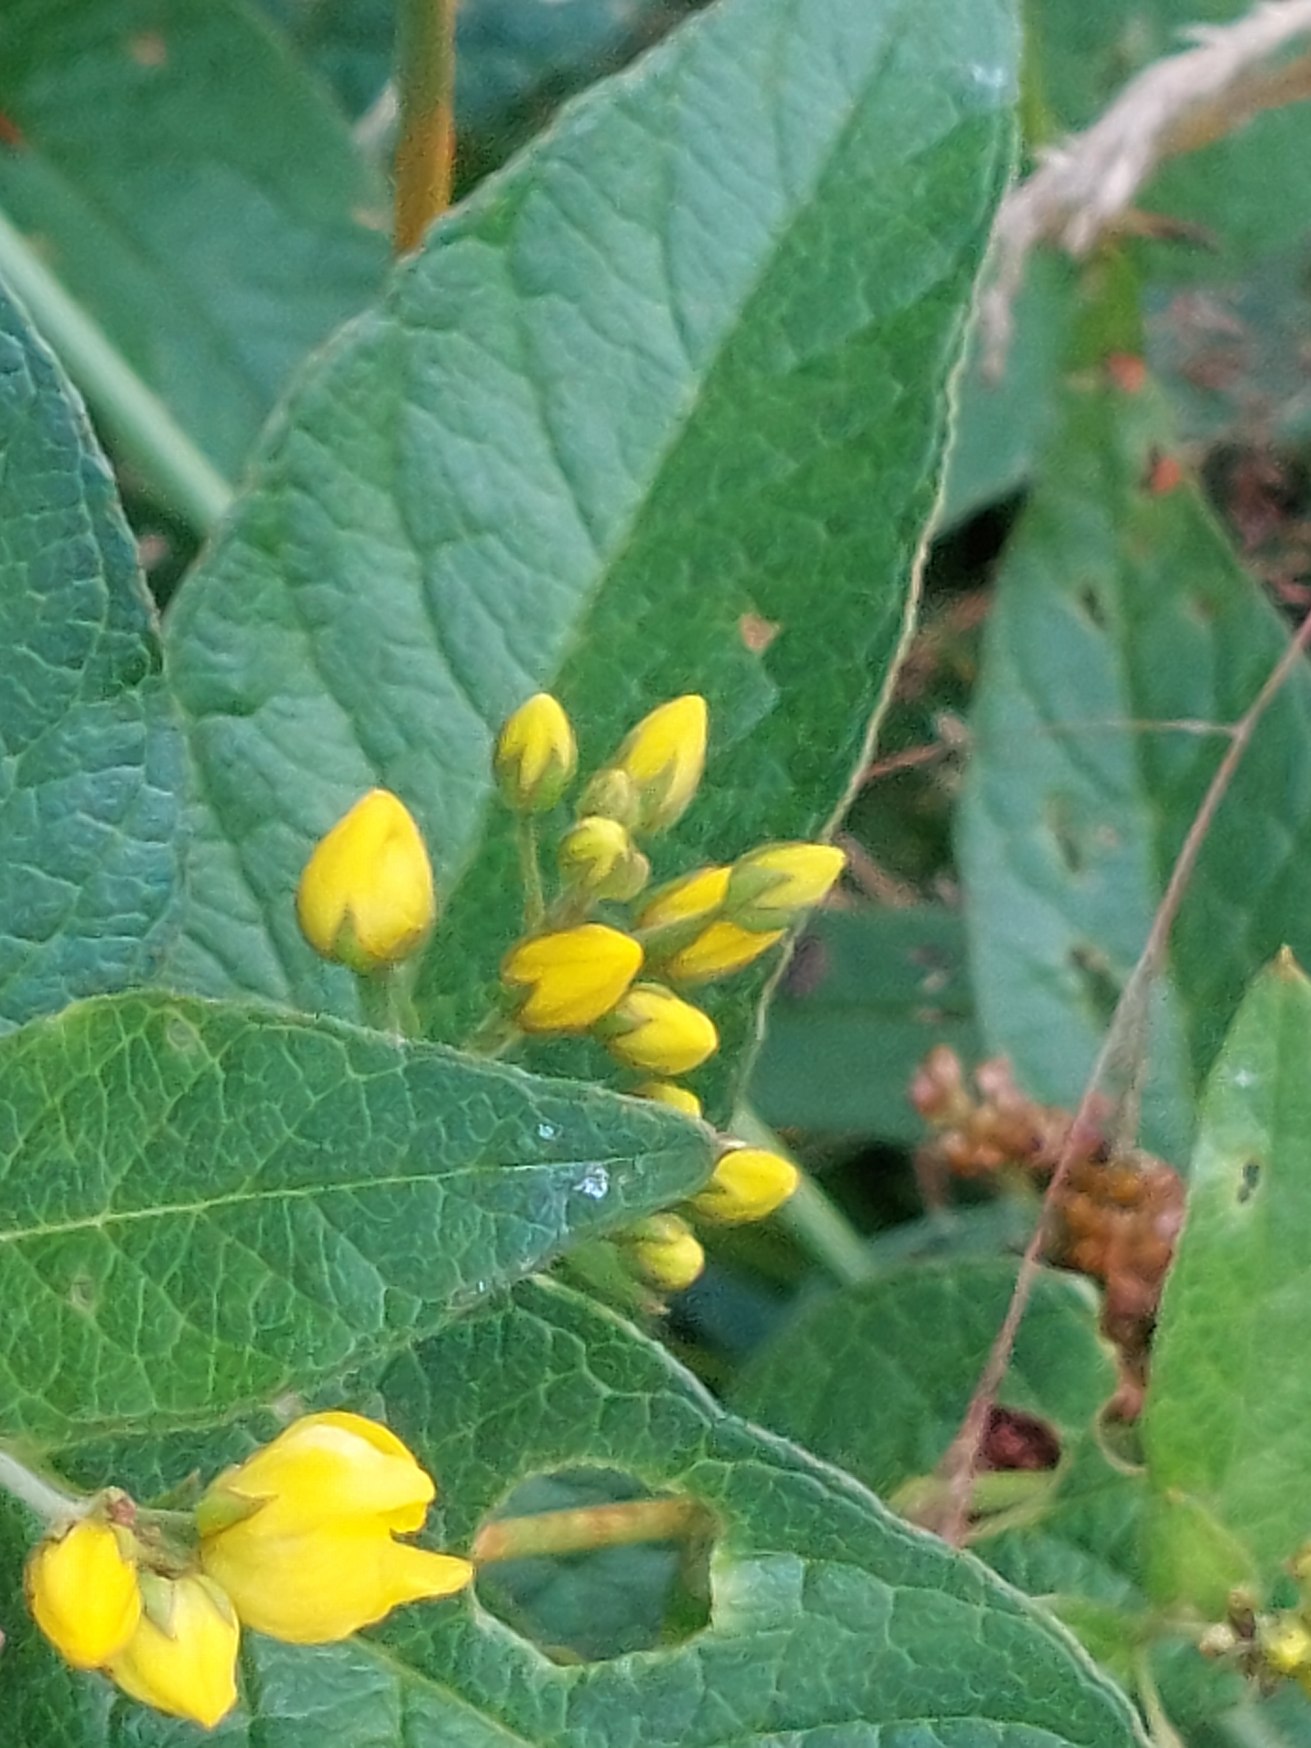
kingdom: Plantae
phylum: Tracheophyta
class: Magnoliopsida
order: Ericales
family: Primulaceae
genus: Lysimachia
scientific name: Lysimachia vulgaris
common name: Almindelig fredløs
